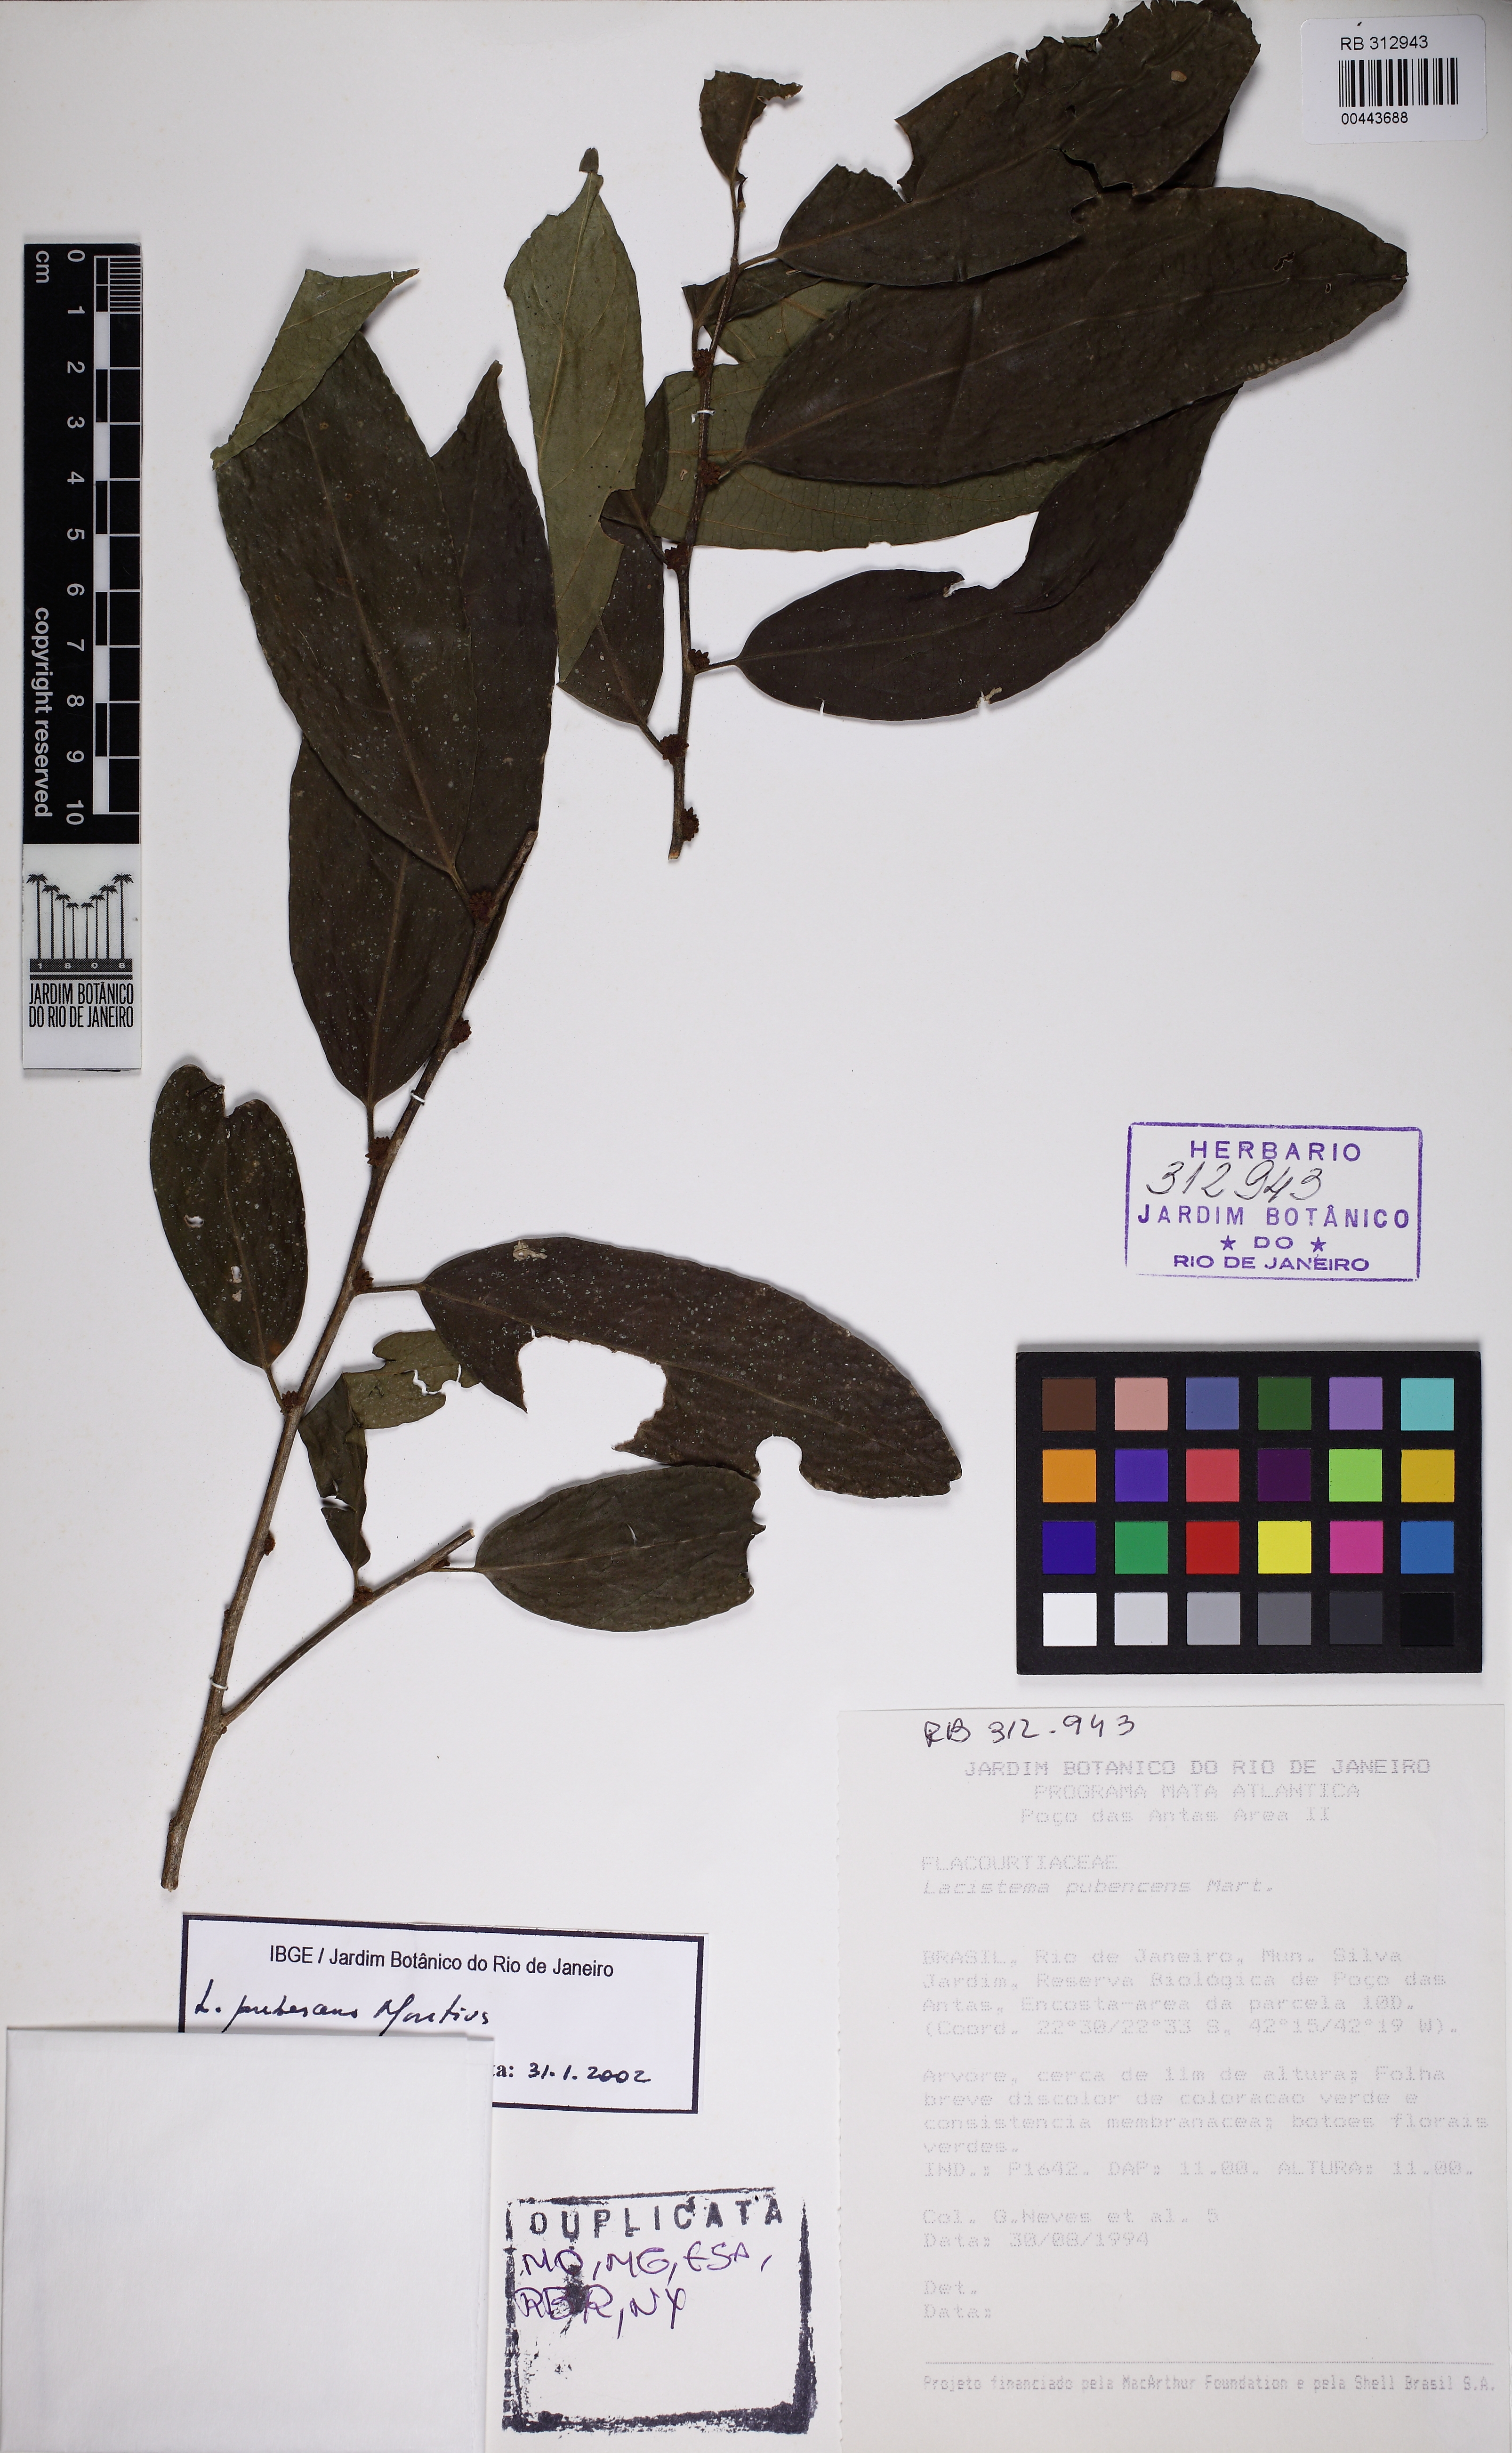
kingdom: Plantae
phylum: Tracheophyta
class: Magnoliopsida
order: Malpighiales
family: Lacistemataceae
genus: Lacistema
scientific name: Lacistema pubescens
